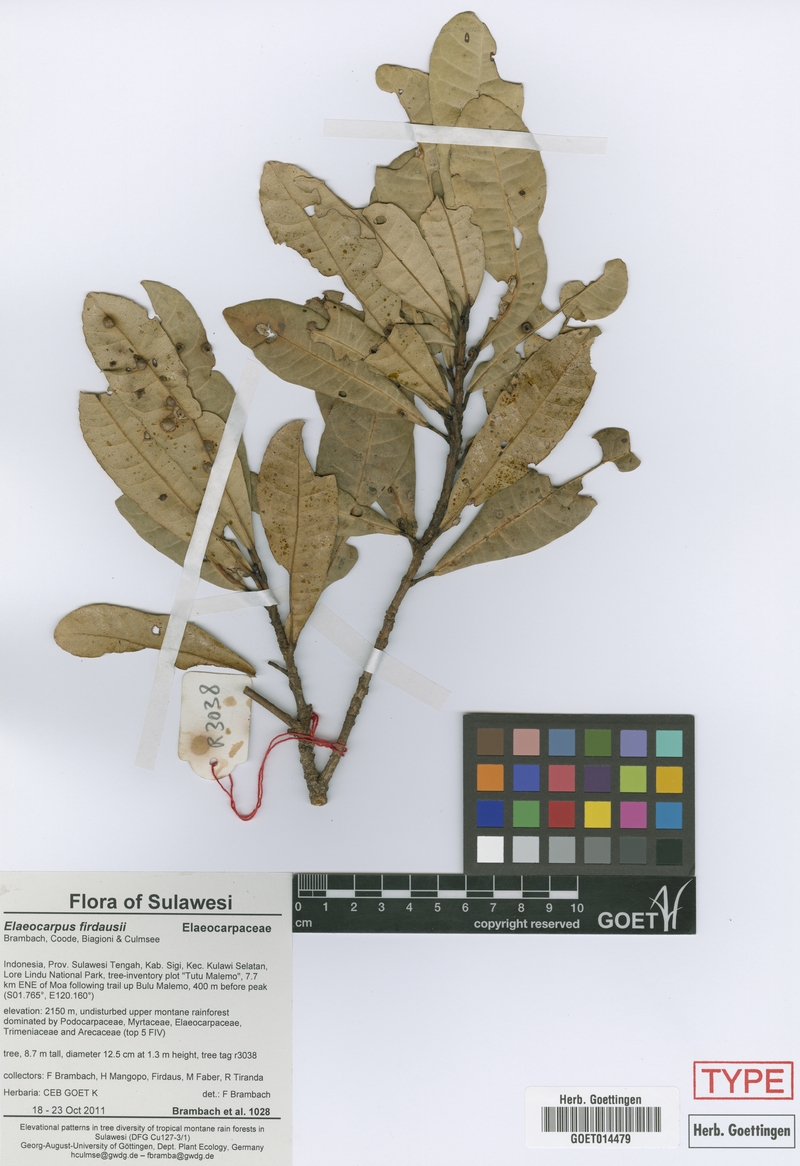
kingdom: Plantae
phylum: Tracheophyta
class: Magnoliopsida
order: Oxalidales
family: Elaeocarpaceae
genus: Elaeocarpus
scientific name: Elaeocarpus firdausii
